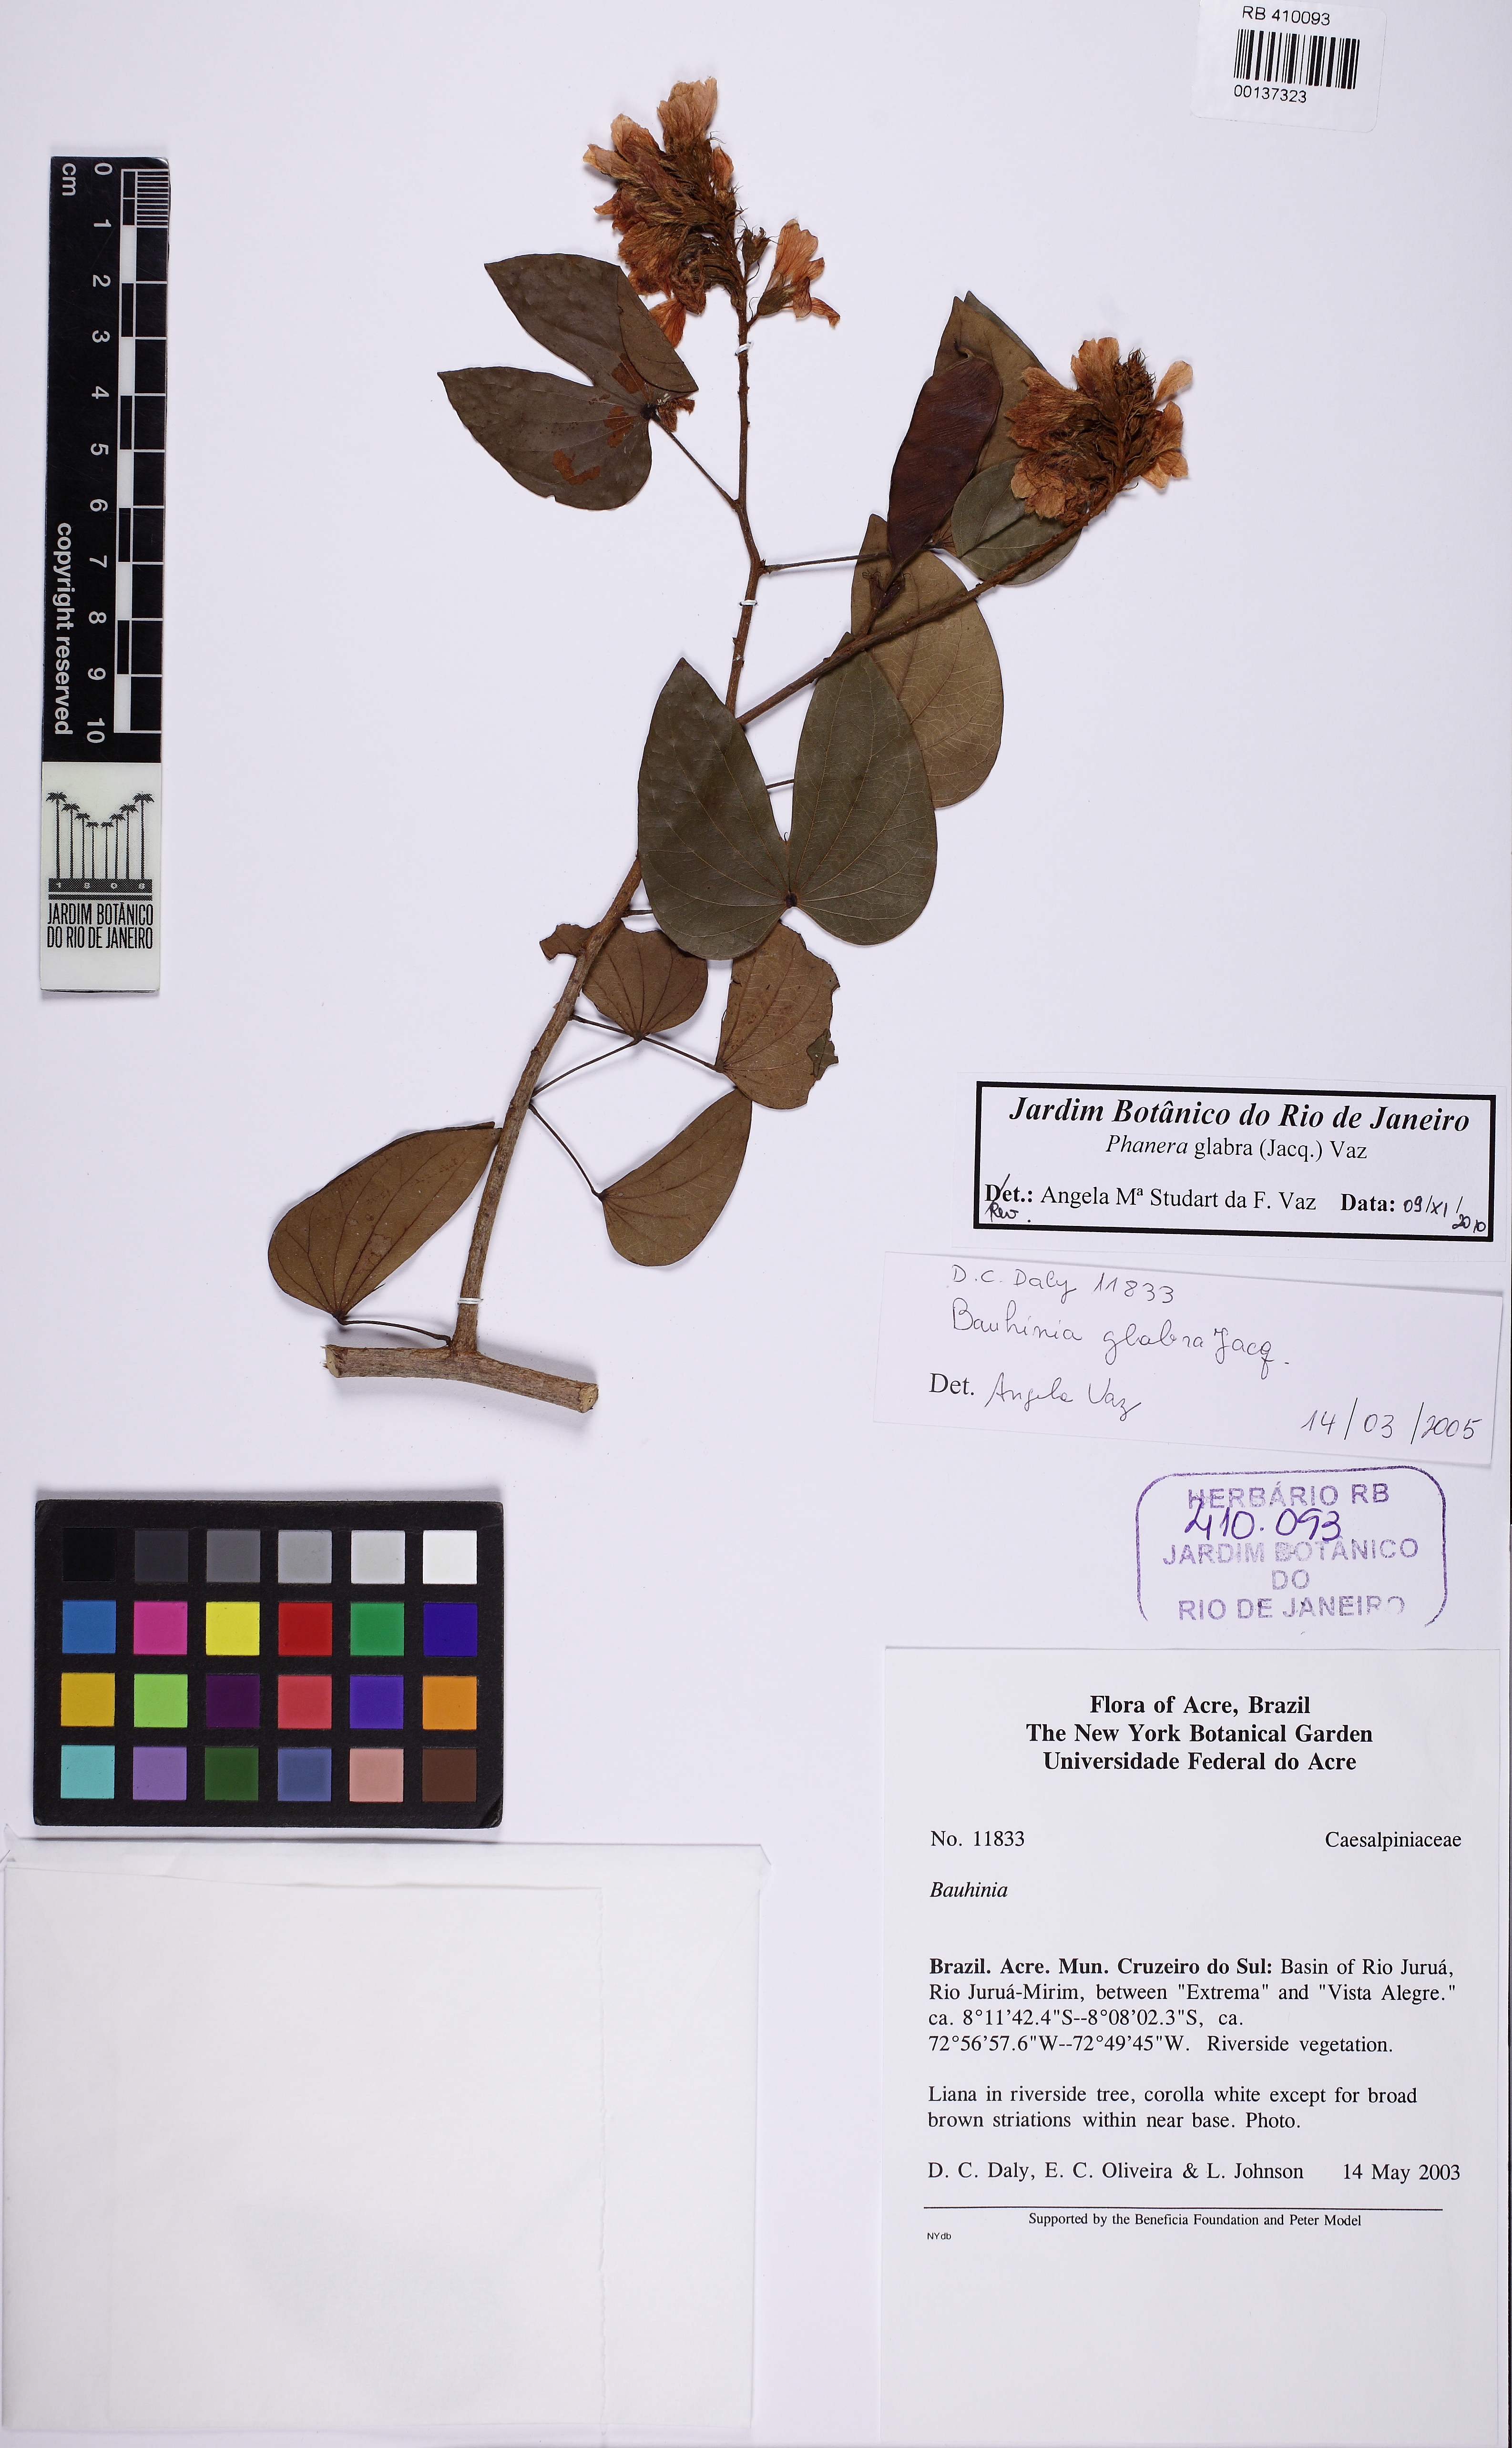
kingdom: Plantae
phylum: Tracheophyta
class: Magnoliopsida
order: Fabales
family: Fabaceae
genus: Schnella
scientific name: Schnella glabra
